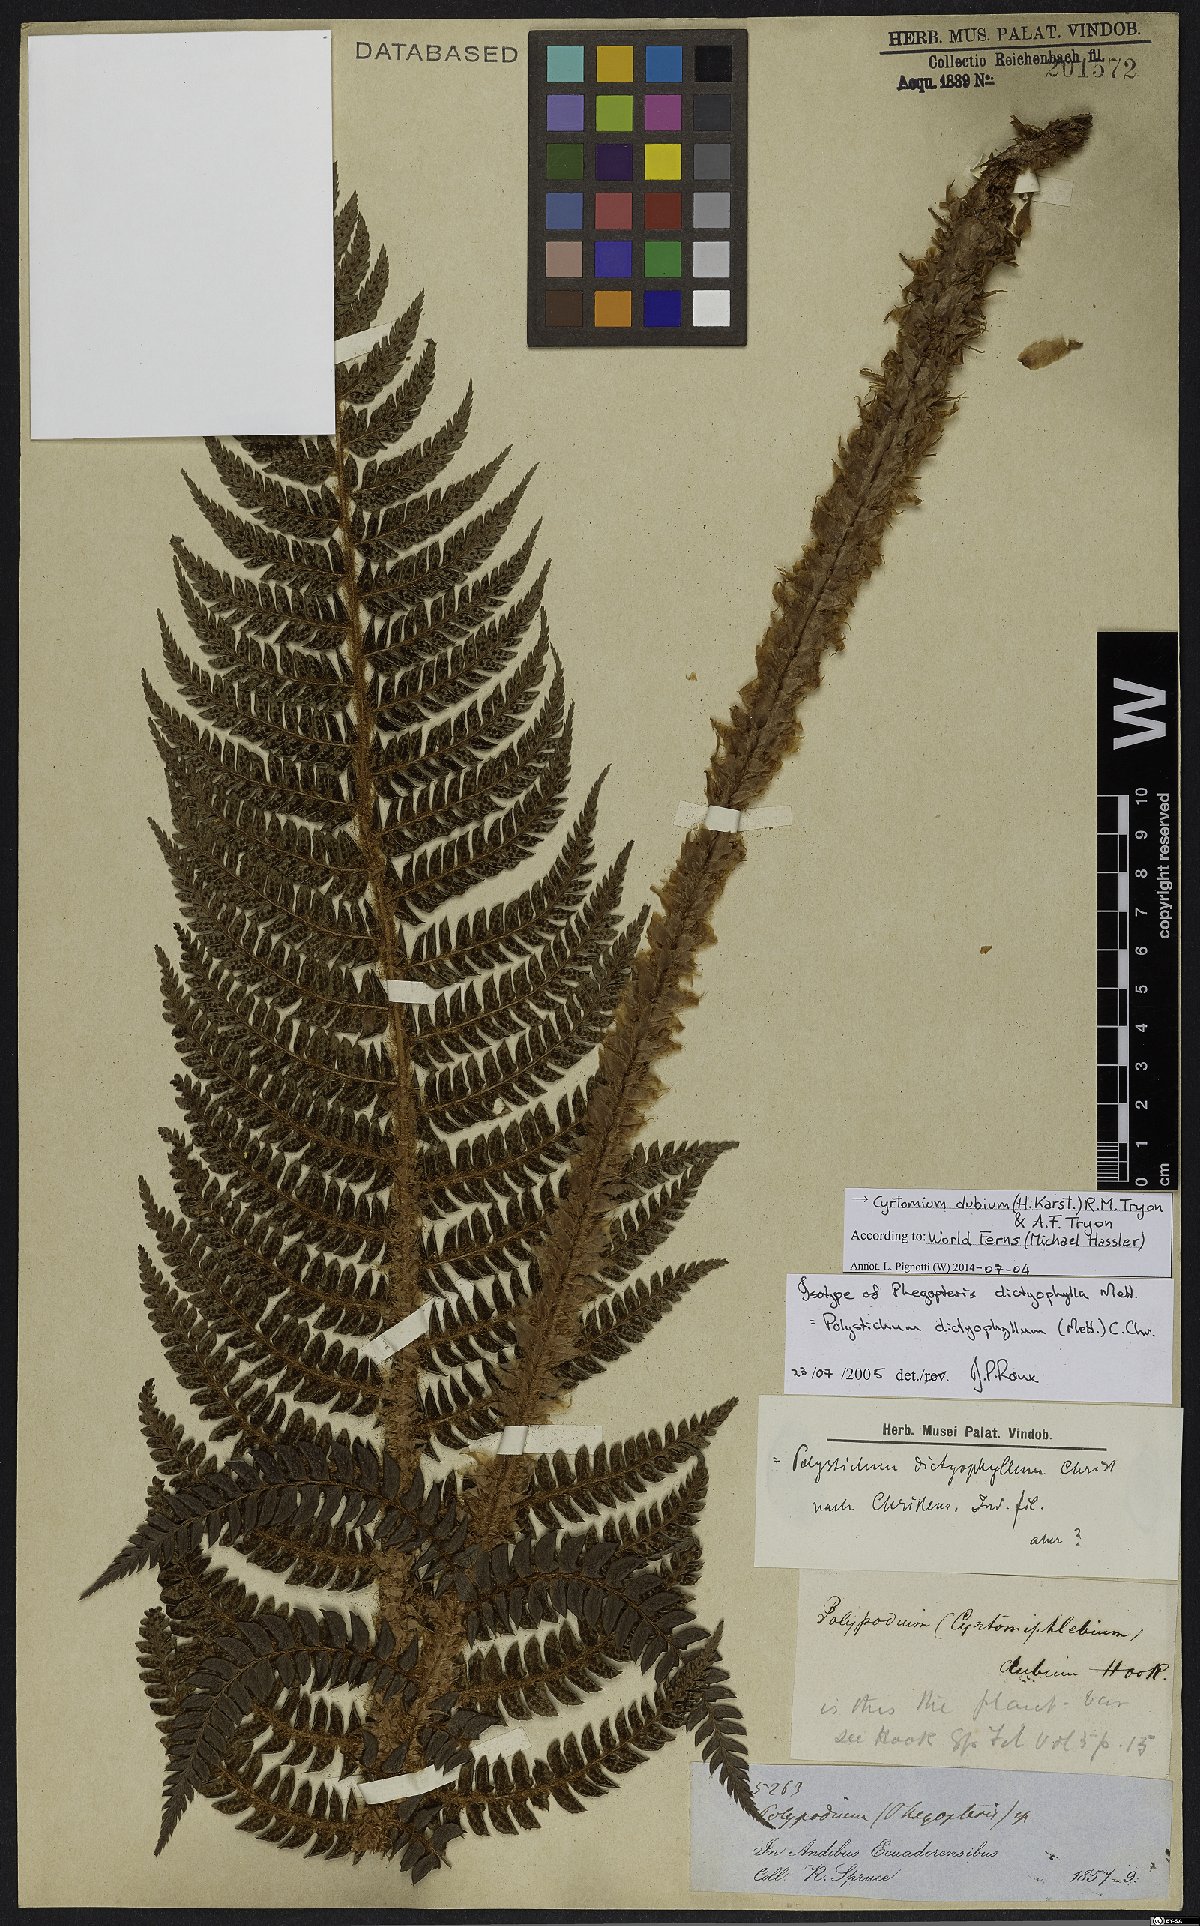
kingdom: Plantae
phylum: Tracheophyta
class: Polypodiopsida
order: Polypodiales
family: Dryopteridaceae
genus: Polystichum
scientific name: Polystichum dubium
